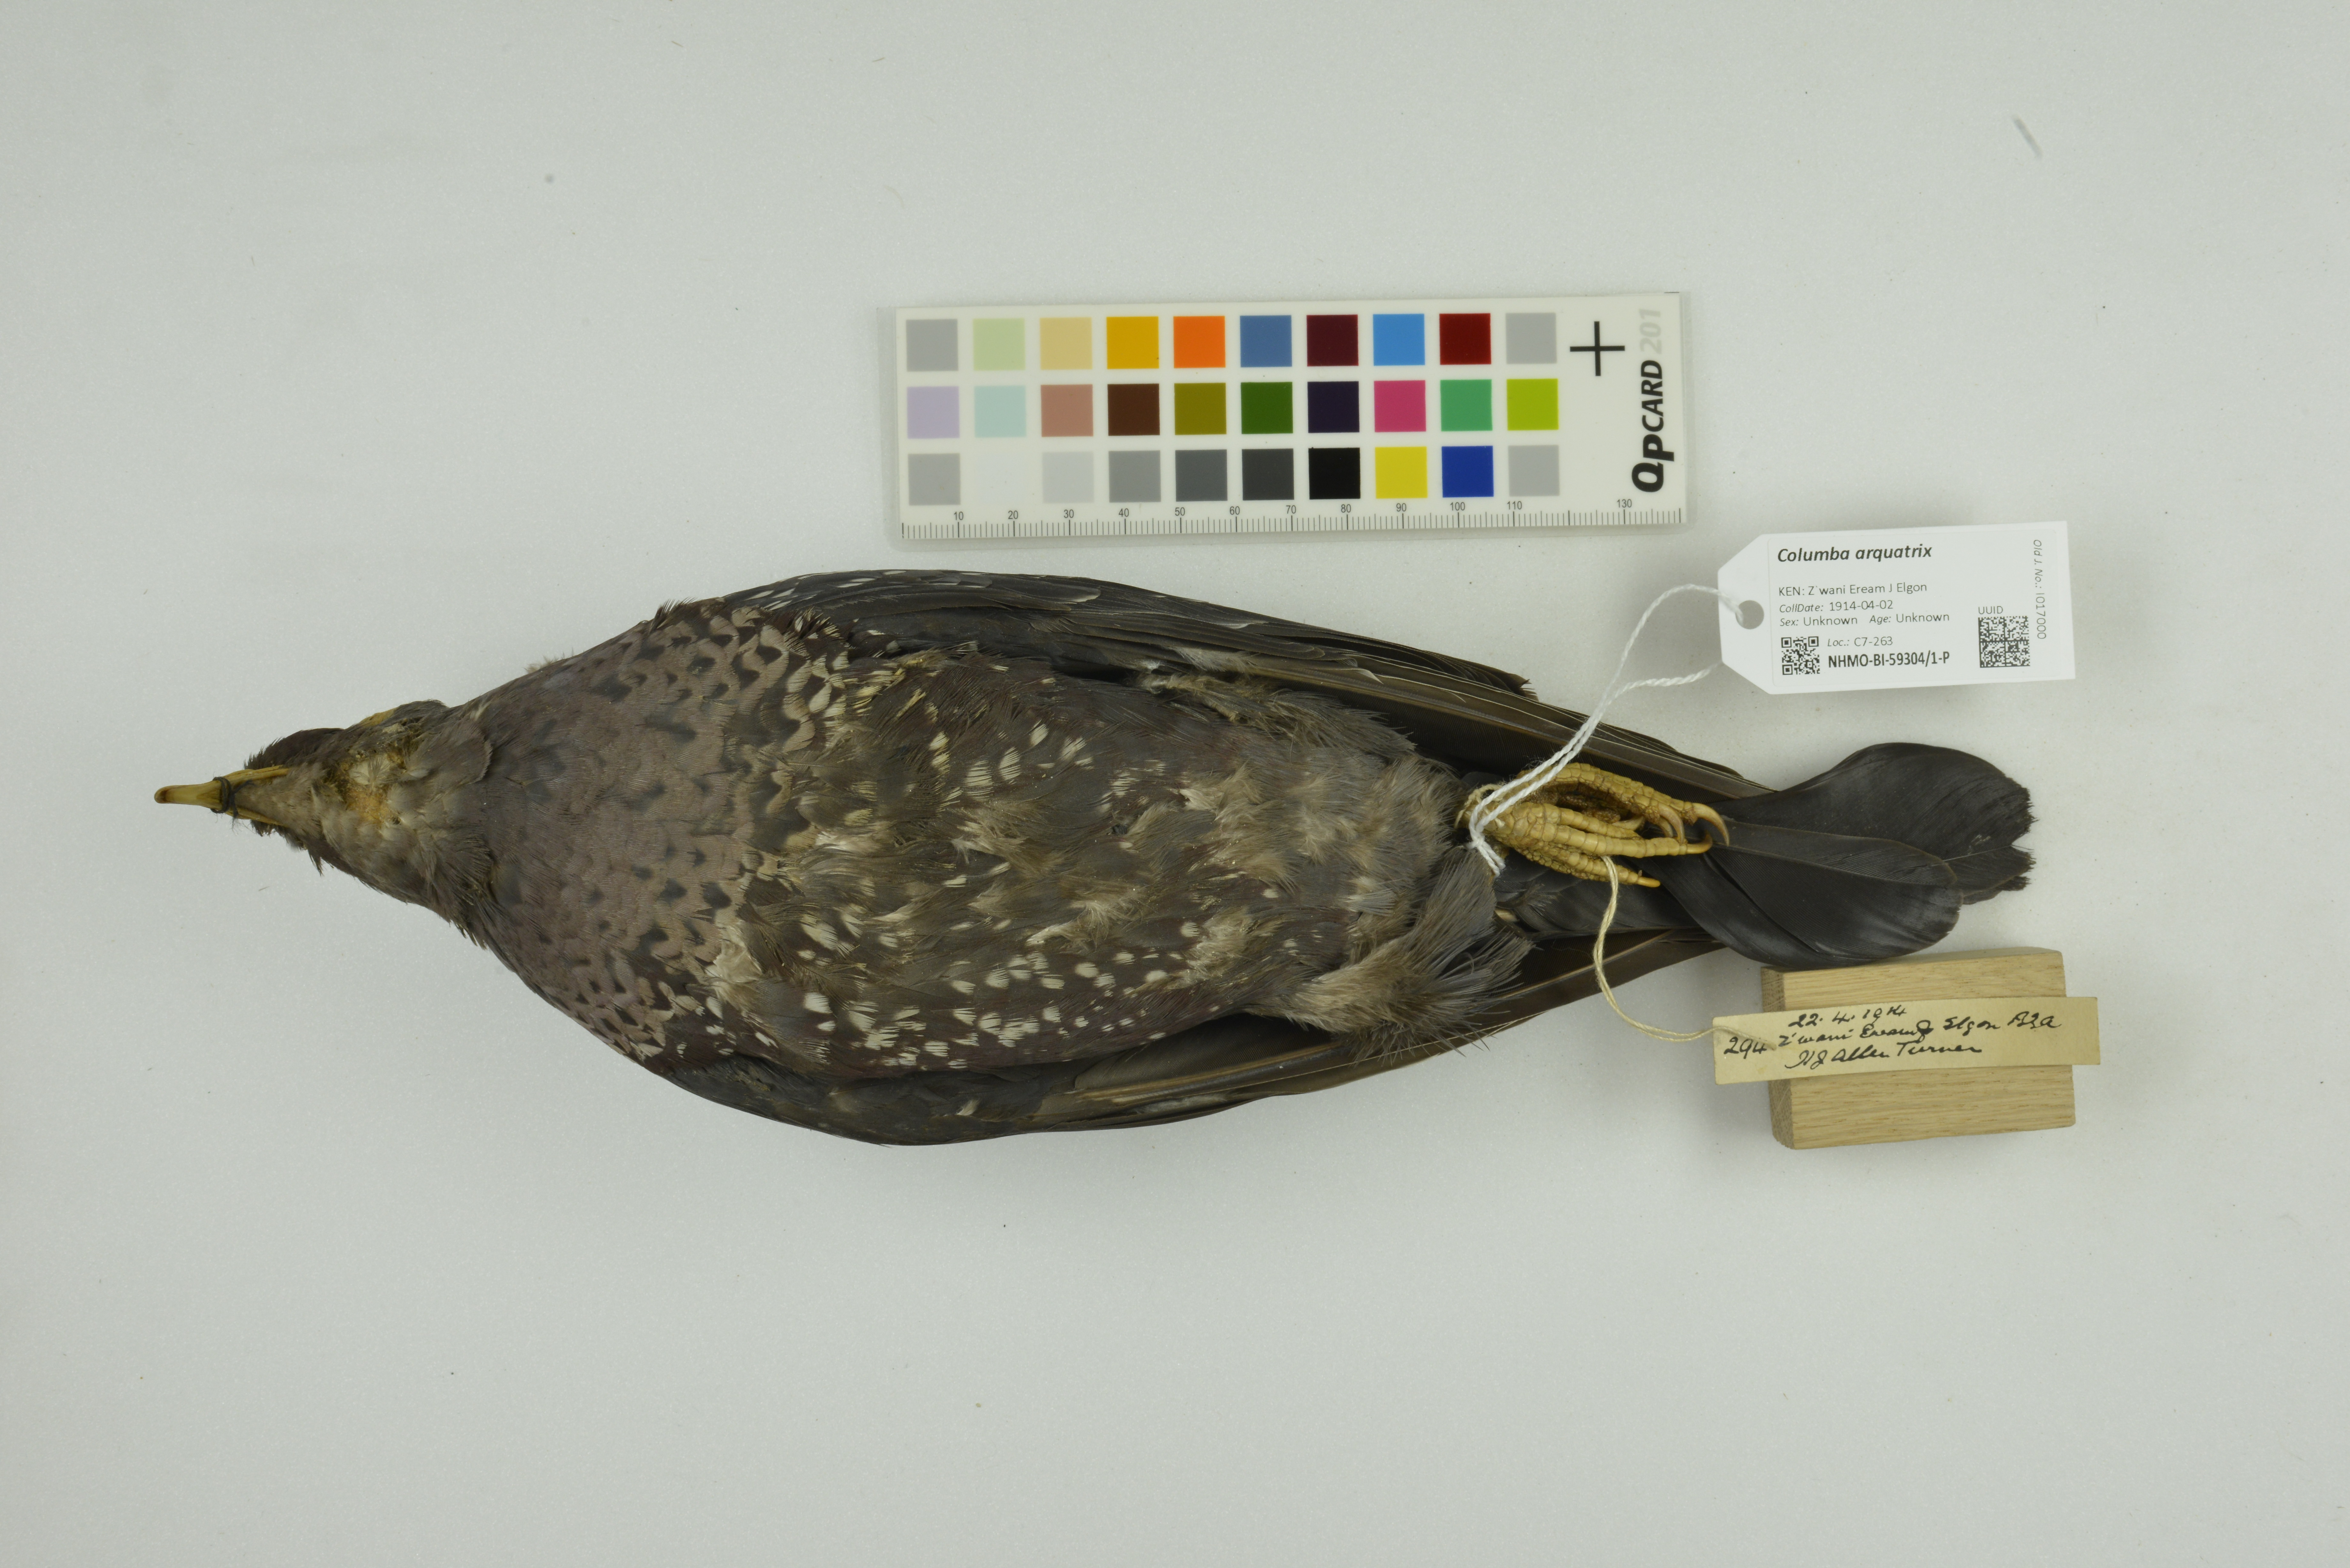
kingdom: Animalia
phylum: Chordata
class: Aves
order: Columbiformes
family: Columbidae
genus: Columba
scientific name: Columba arquatrix
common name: African olive pigeon
